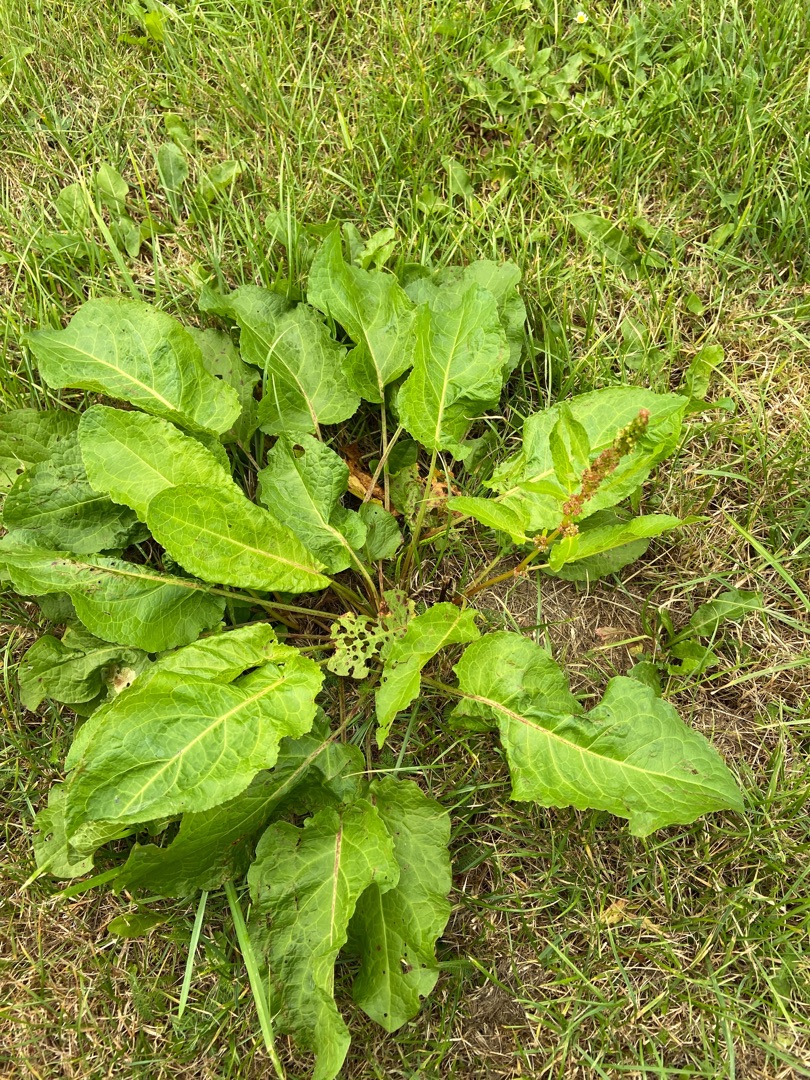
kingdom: Plantae
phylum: Tracheophyta
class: Magnoliopsida
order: Caryophyllales
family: Polygonaceae
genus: Rumex
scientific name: Rumex obtusifolius
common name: Butbladet skræppe
